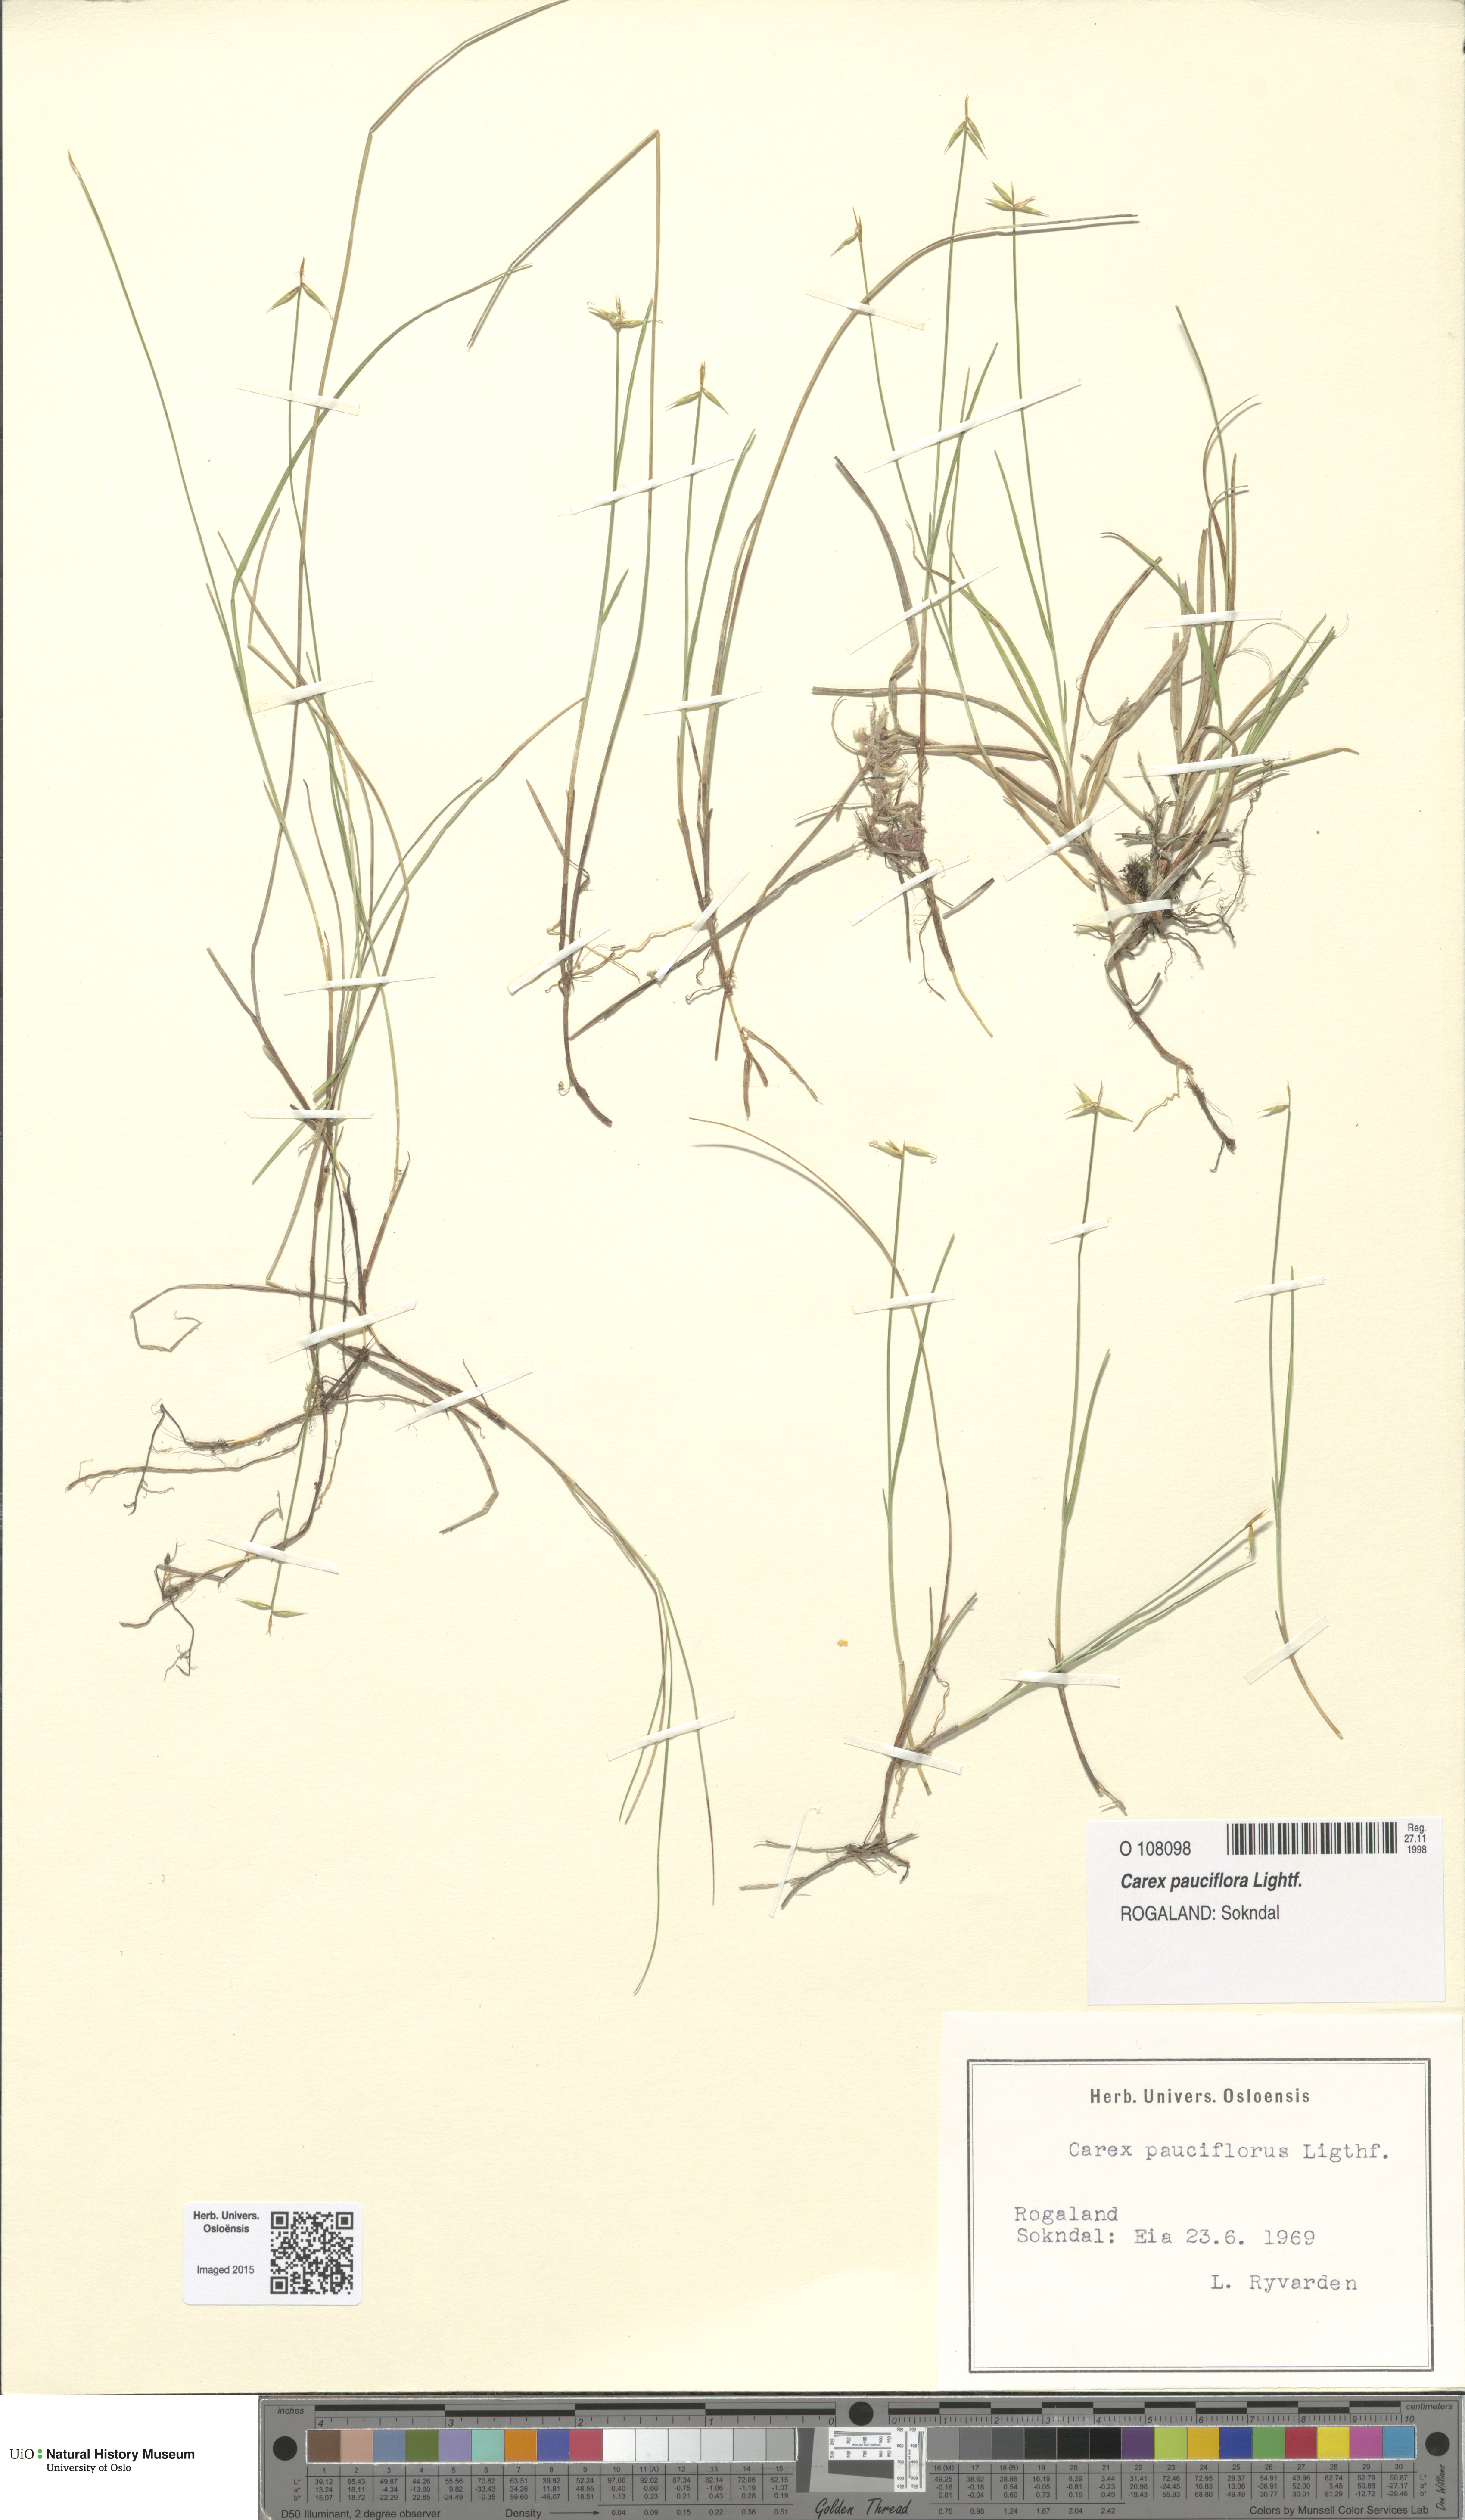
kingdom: Plantae
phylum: Tracheophyta
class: Liliopsida
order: Poales
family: Cyperaceae
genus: Carex
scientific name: Carex pauciflora
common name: Few-flowered sedge
